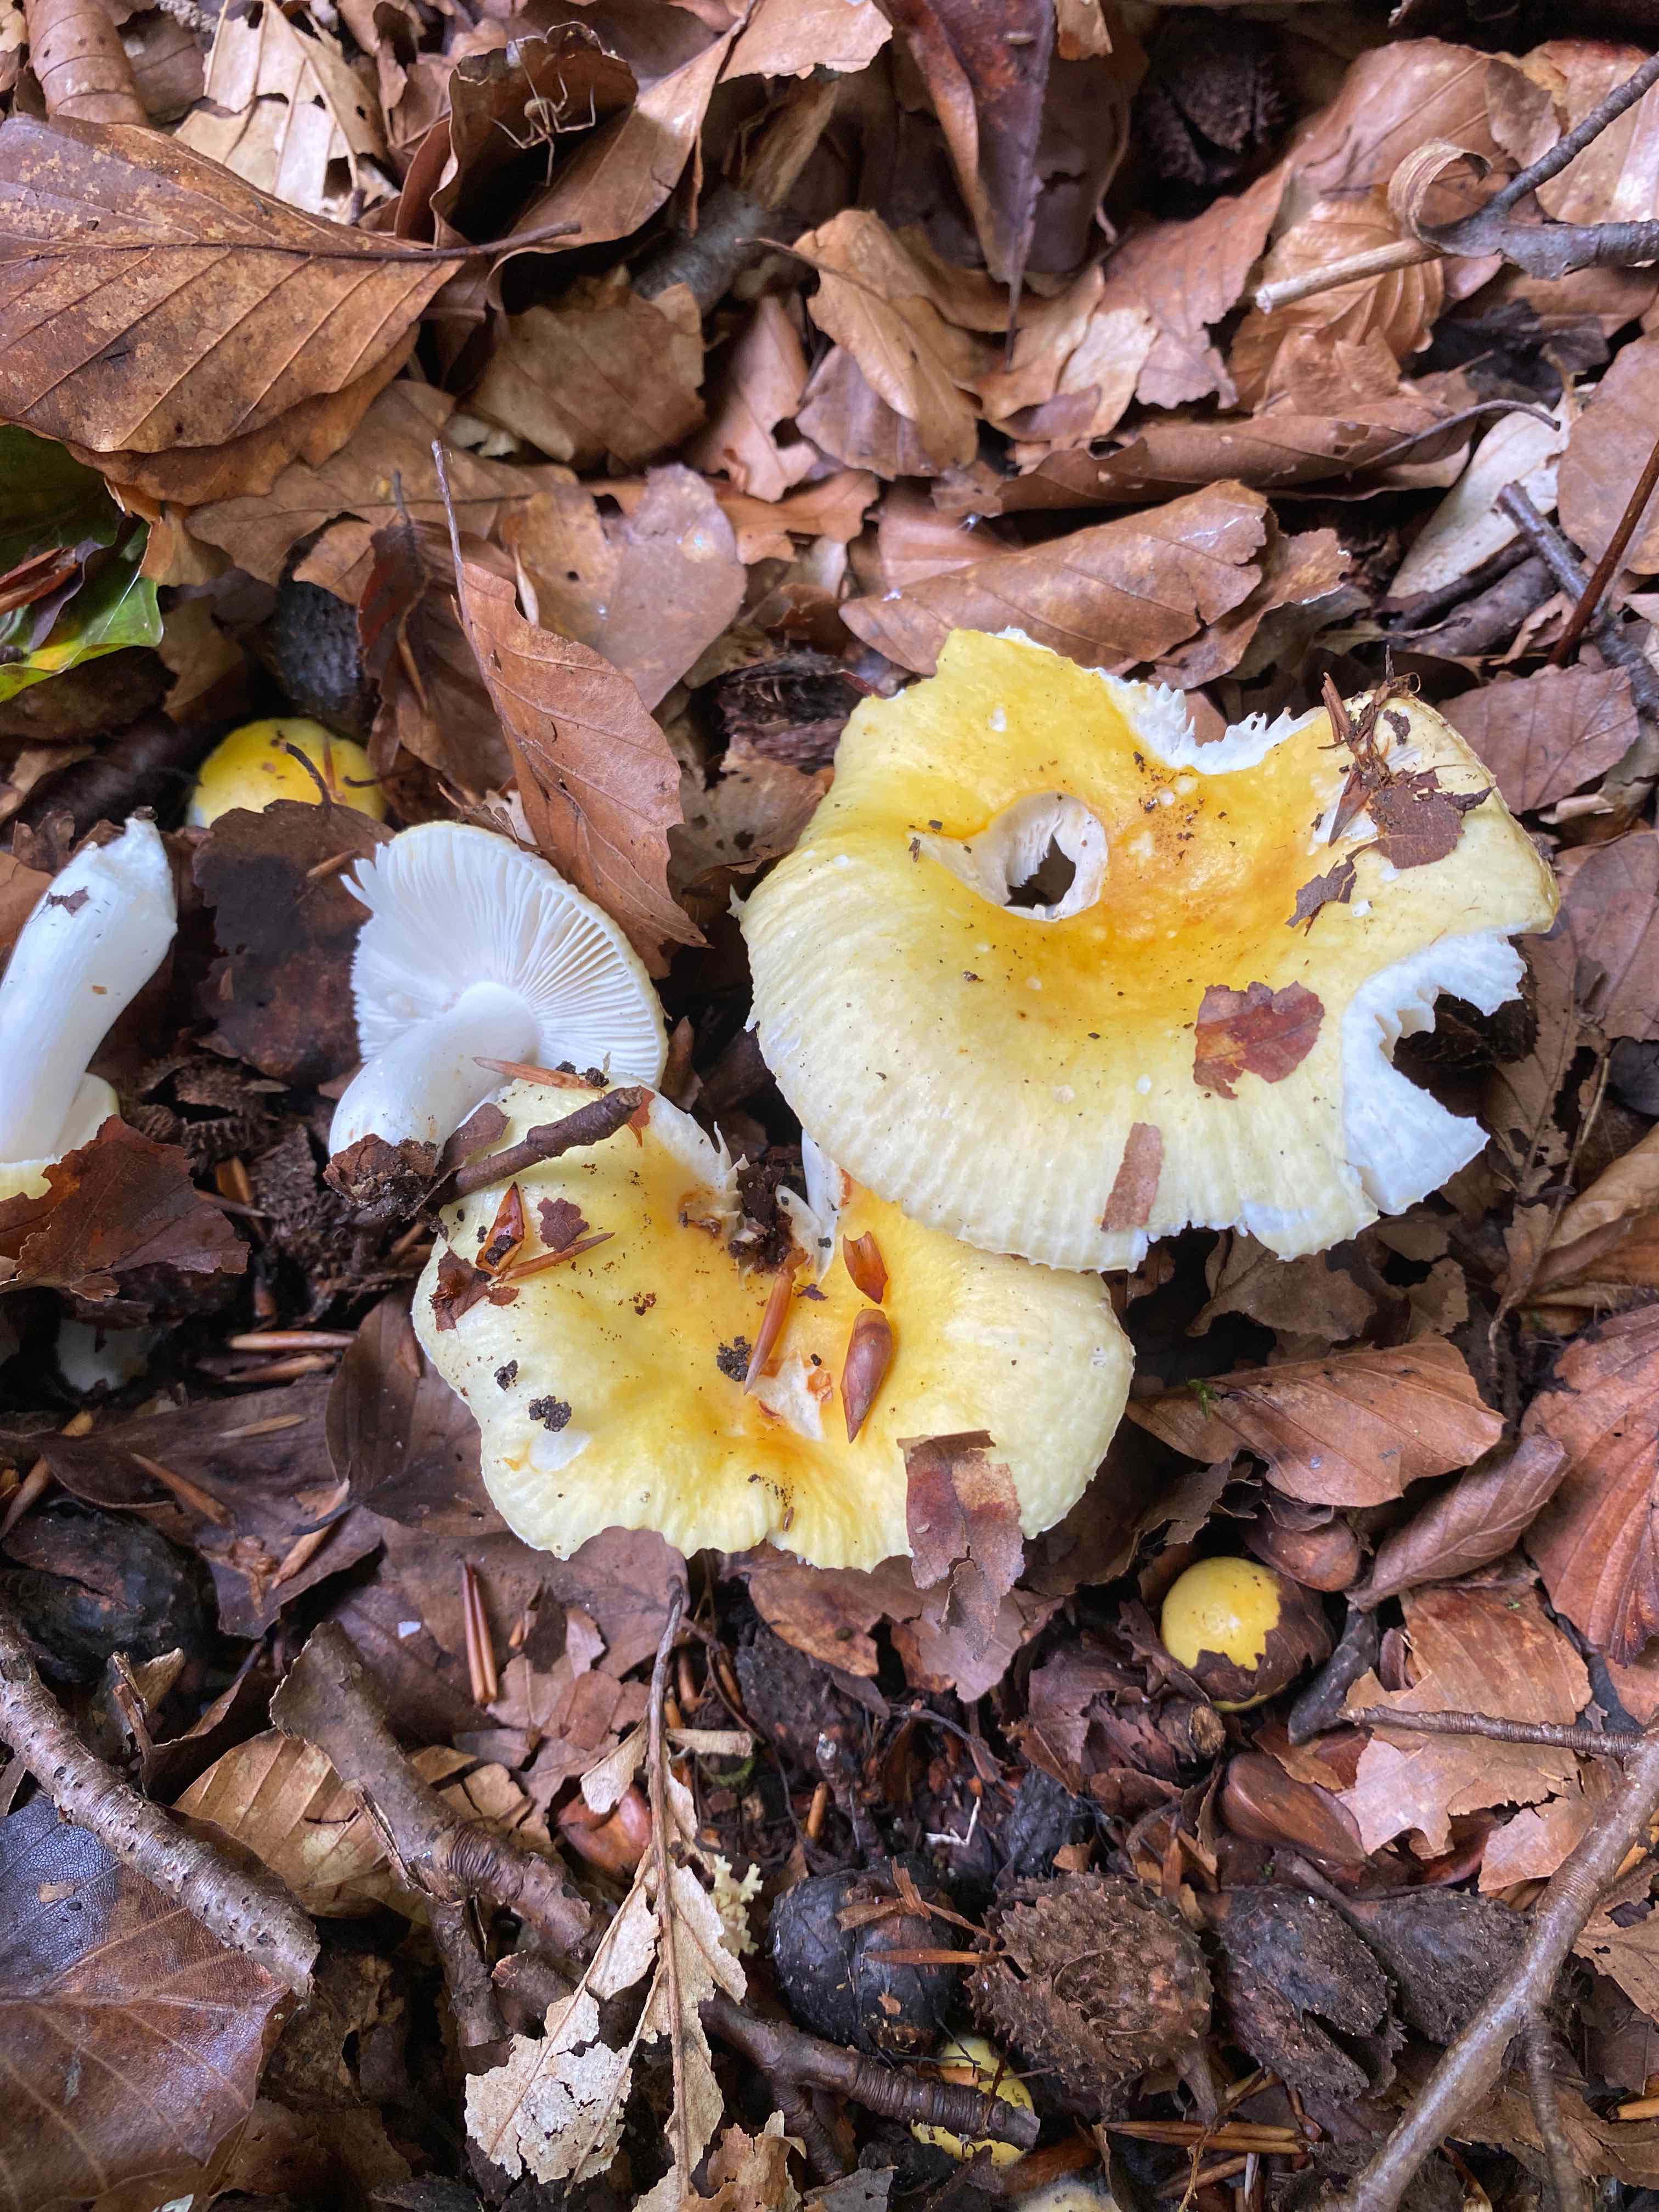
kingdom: Fungi
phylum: Basidiomycota
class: Agaricomycetes
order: Russulales
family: Russulaceae
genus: Russula
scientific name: Russula solaris
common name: sol-skørhat
